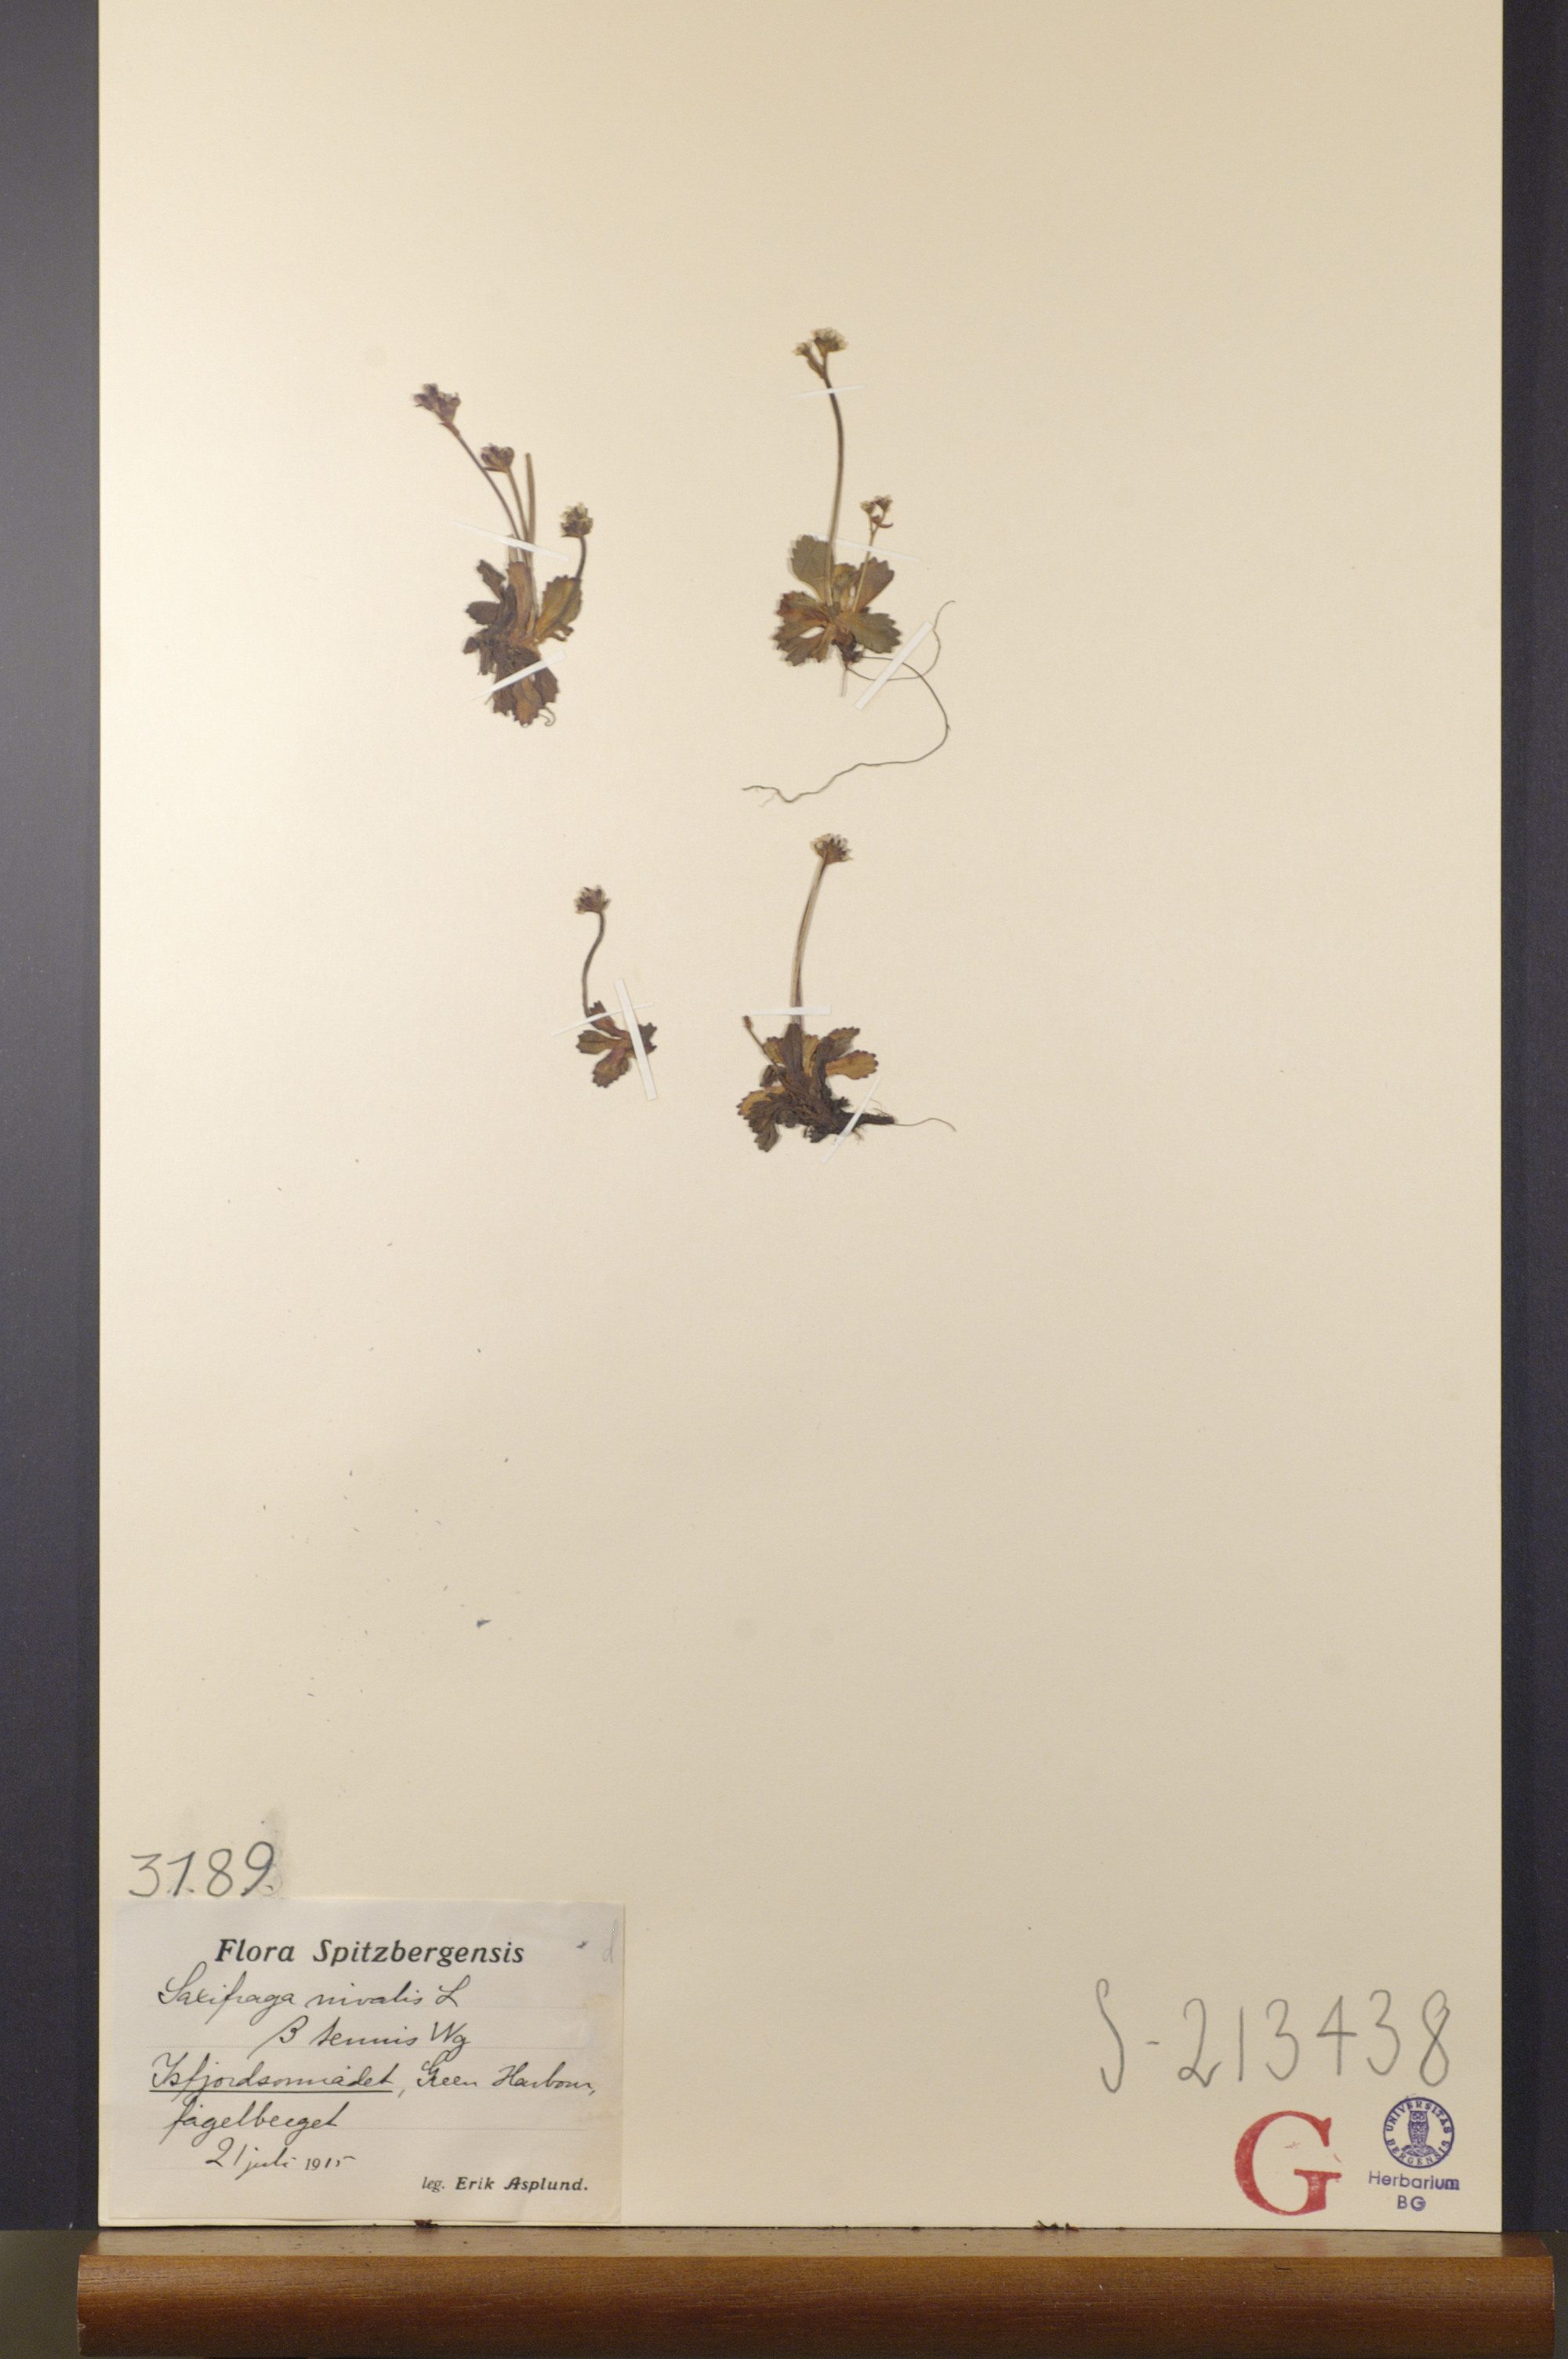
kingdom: Plantae
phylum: Tracheophyta
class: Magnoliopsida
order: Saxifragales
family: Saxifragaceae
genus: Micranthes
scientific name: Micranthes tenuis
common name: Ottertail pass saxifrage
